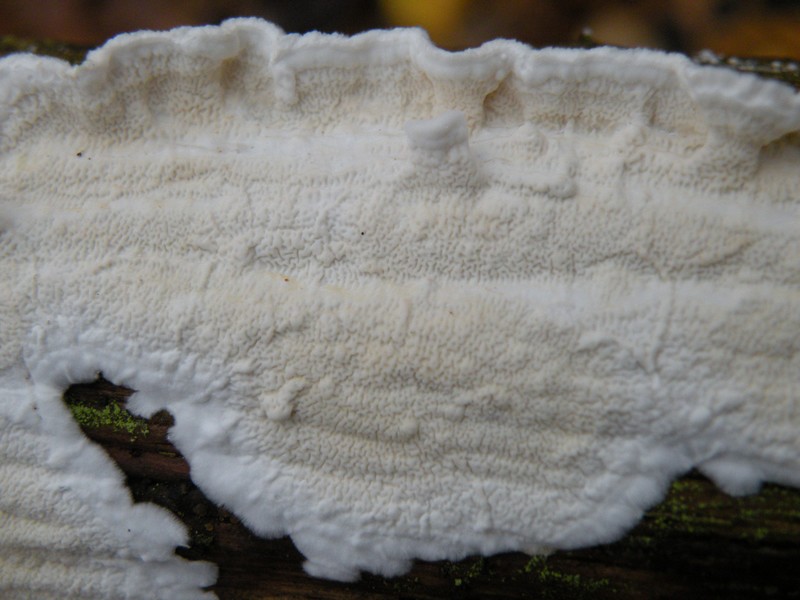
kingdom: Fungi
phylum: Basidiomycota
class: Agaricomycetes
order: Polyporales
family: Irpicaceae
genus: Byssomerulius
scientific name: Byssomerulius corium
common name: læder-åresvamp
